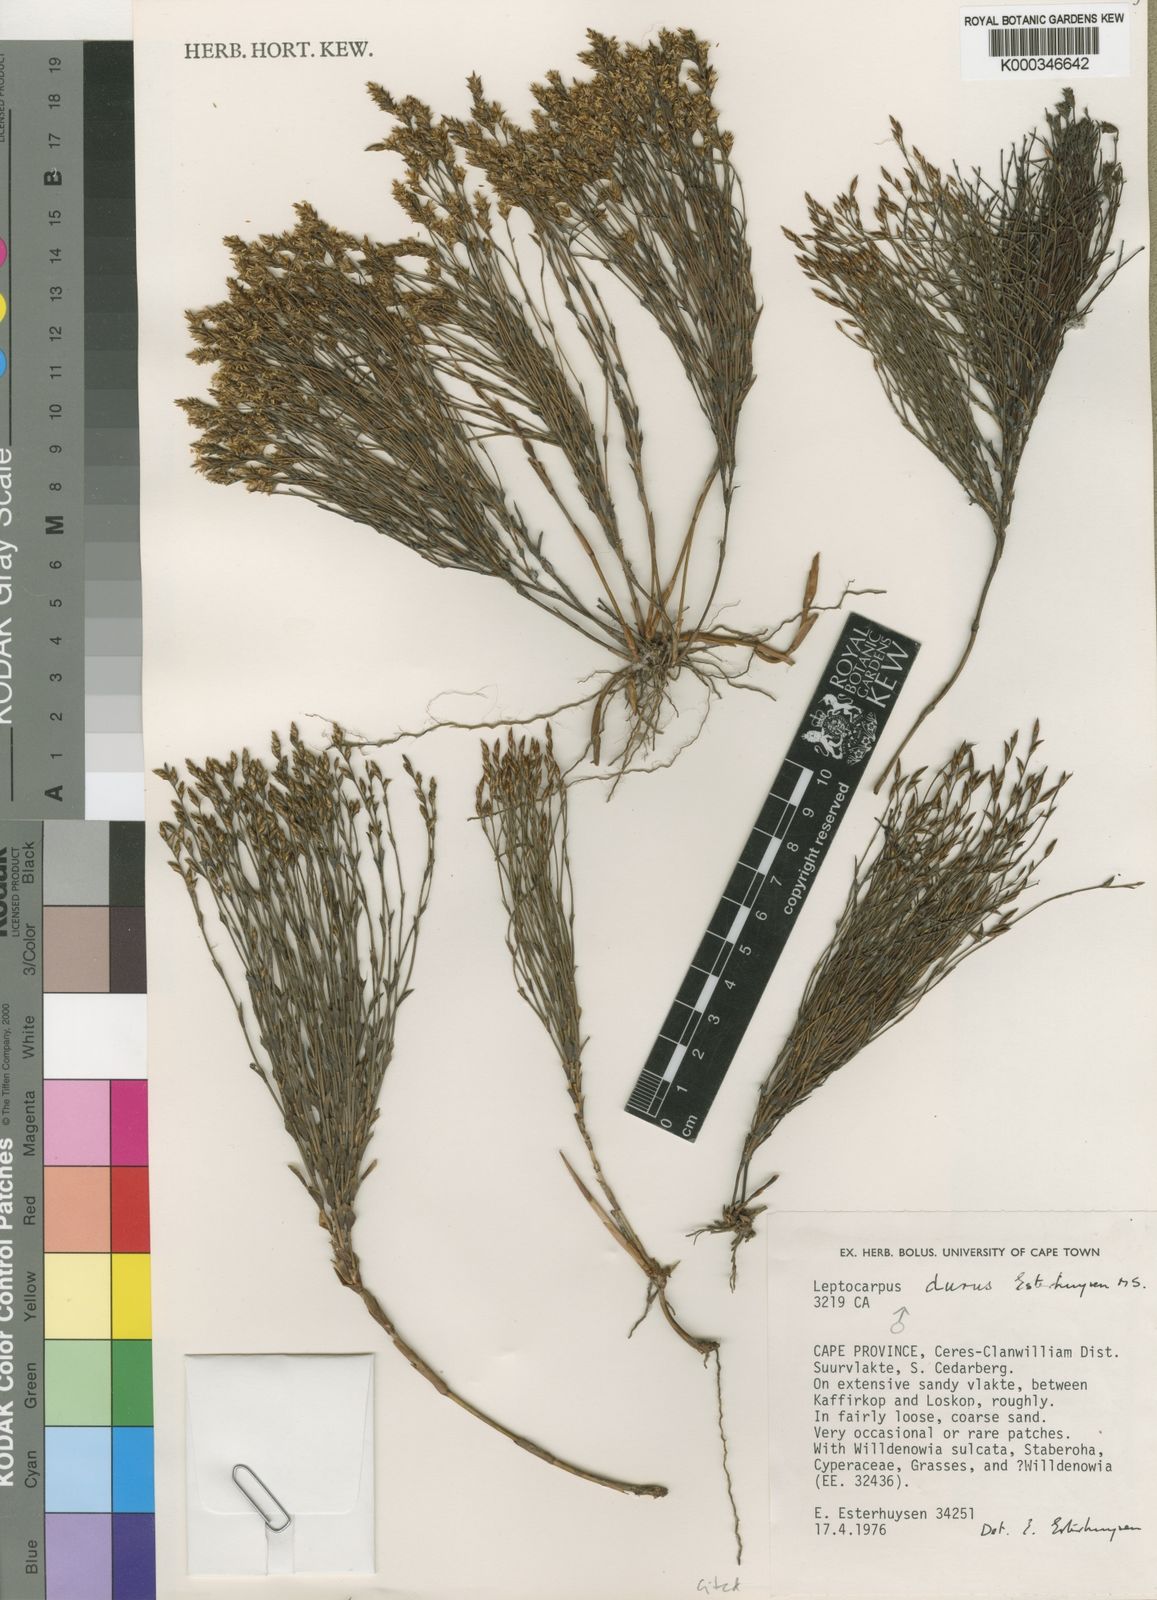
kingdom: Plantae
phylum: Tracheophyta
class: Liliopsida
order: Poales
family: Restionaceae
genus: Restio
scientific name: Restio durus
